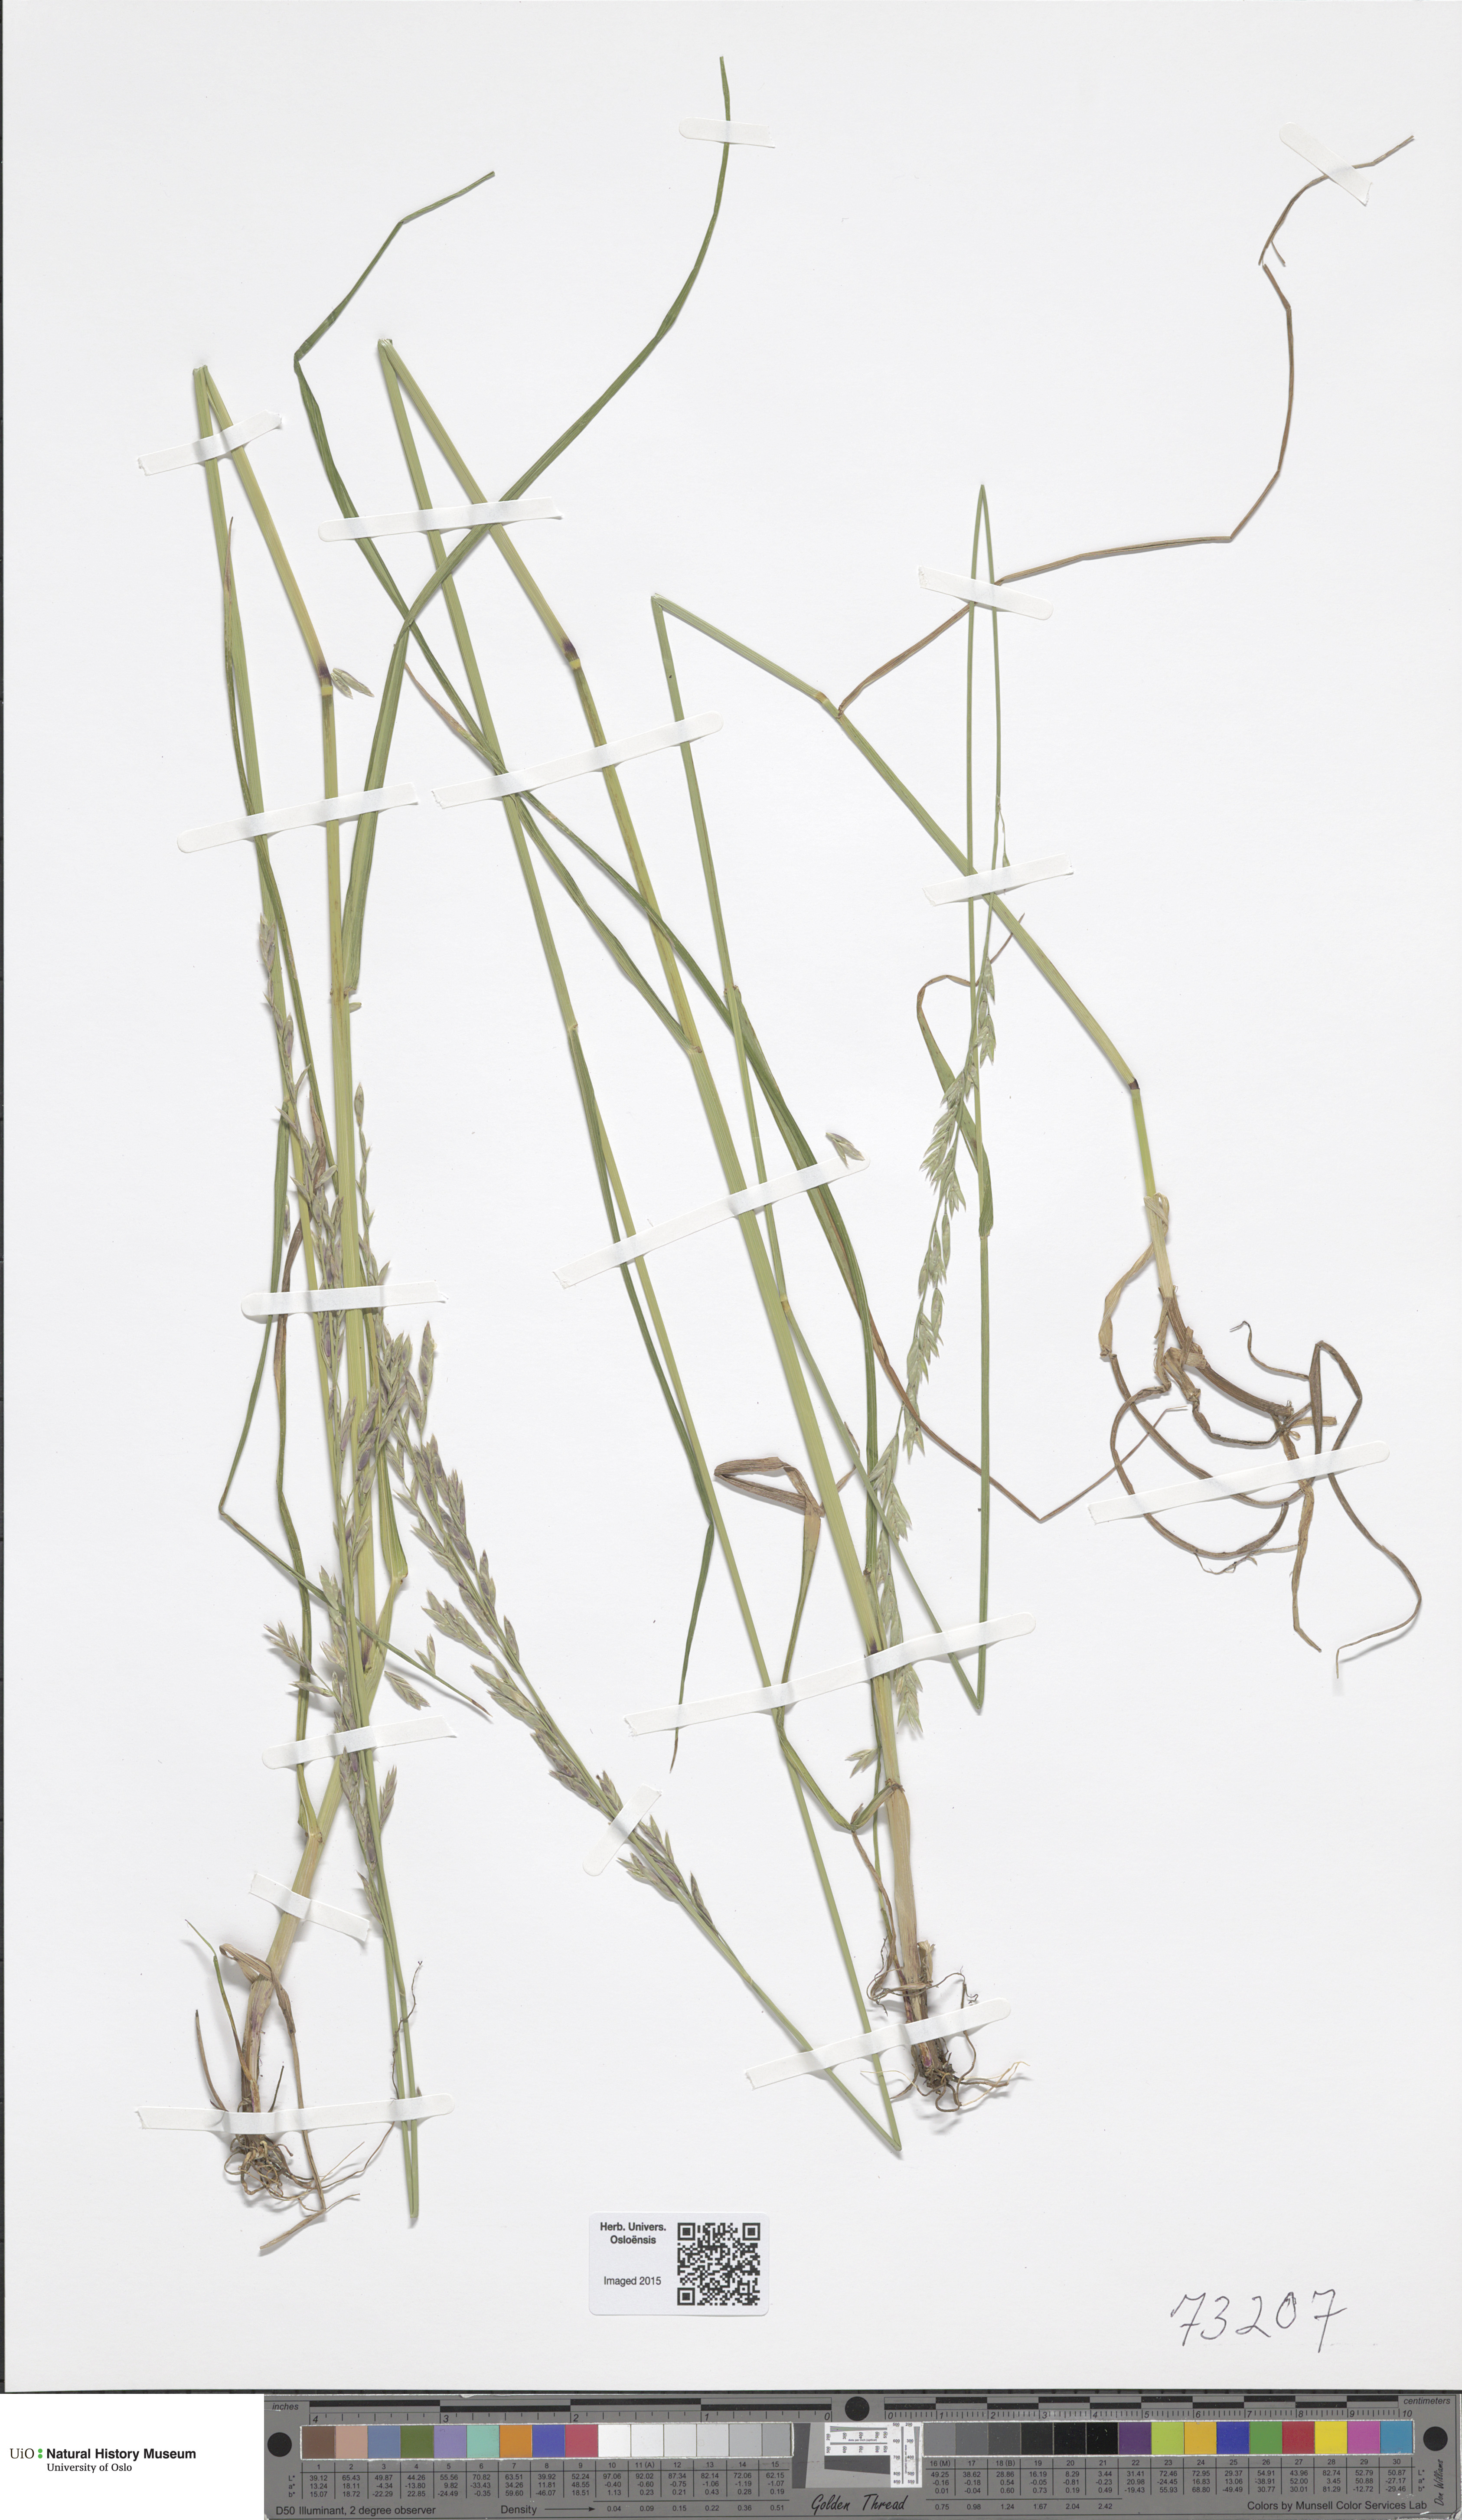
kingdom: Plantae
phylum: Tracheophyta
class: Liliopsida
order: Poales
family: Poaceae
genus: Lolium
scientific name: Lolium pratense
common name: Dover grass
